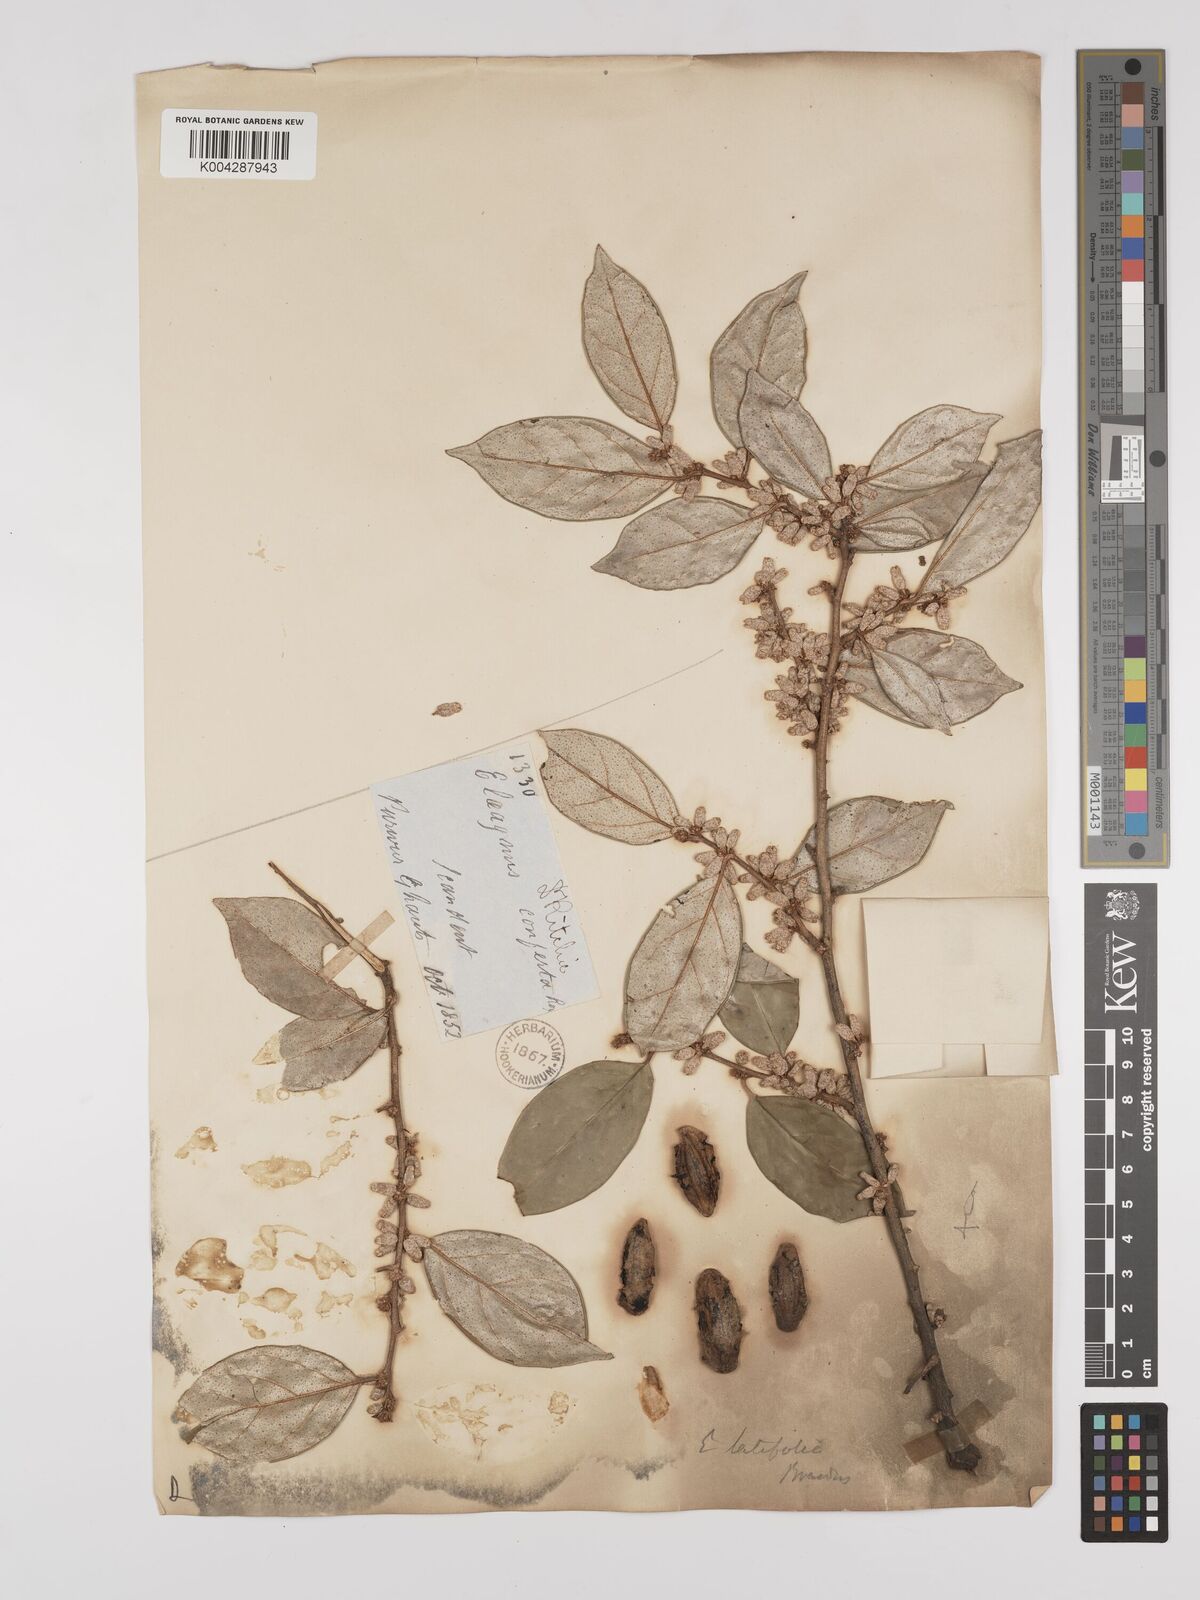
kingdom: Plantae
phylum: Tracheophyta
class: Magnoliopsida
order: Rosales
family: Elaeagnaceae
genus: Elaeagnus
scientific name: Elaeagnus latifolia
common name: Oleaster
